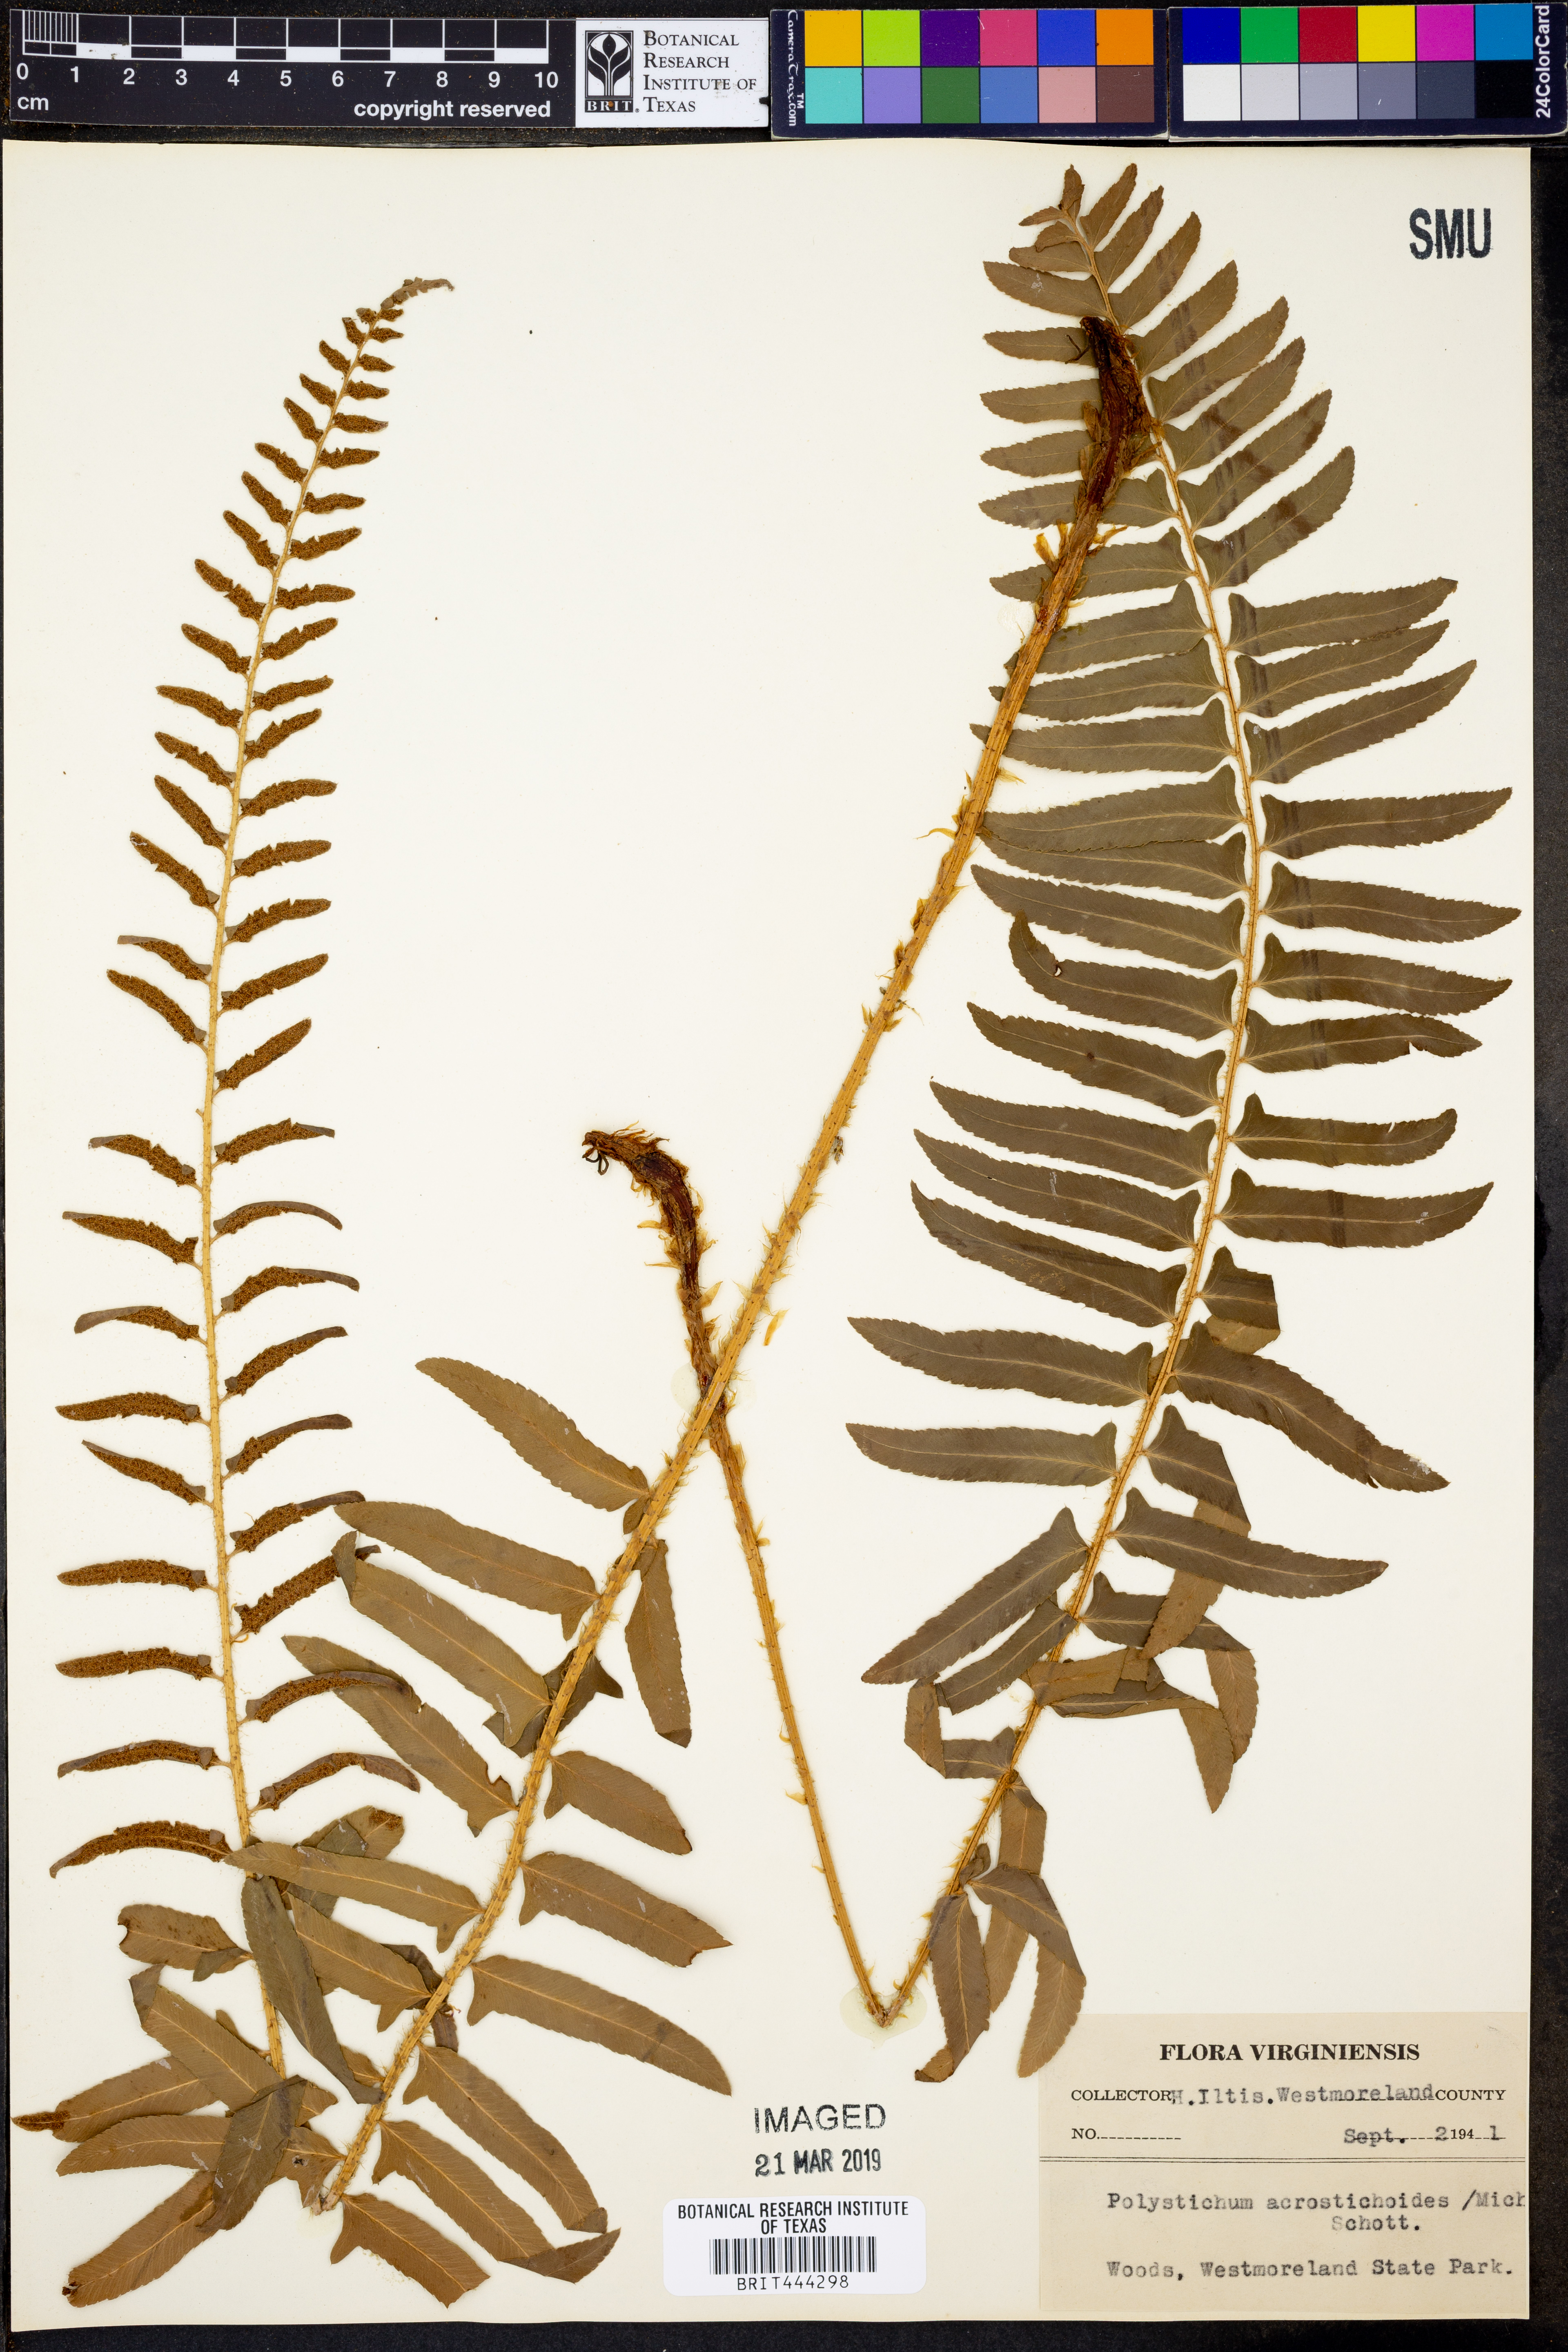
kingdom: Plantae
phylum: Tracheophyta
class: Polypodiopsida
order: Polypodiales
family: Dryopteridaceae
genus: Polystichum
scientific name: Polystichum acrostichoides
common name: Christmas fern
